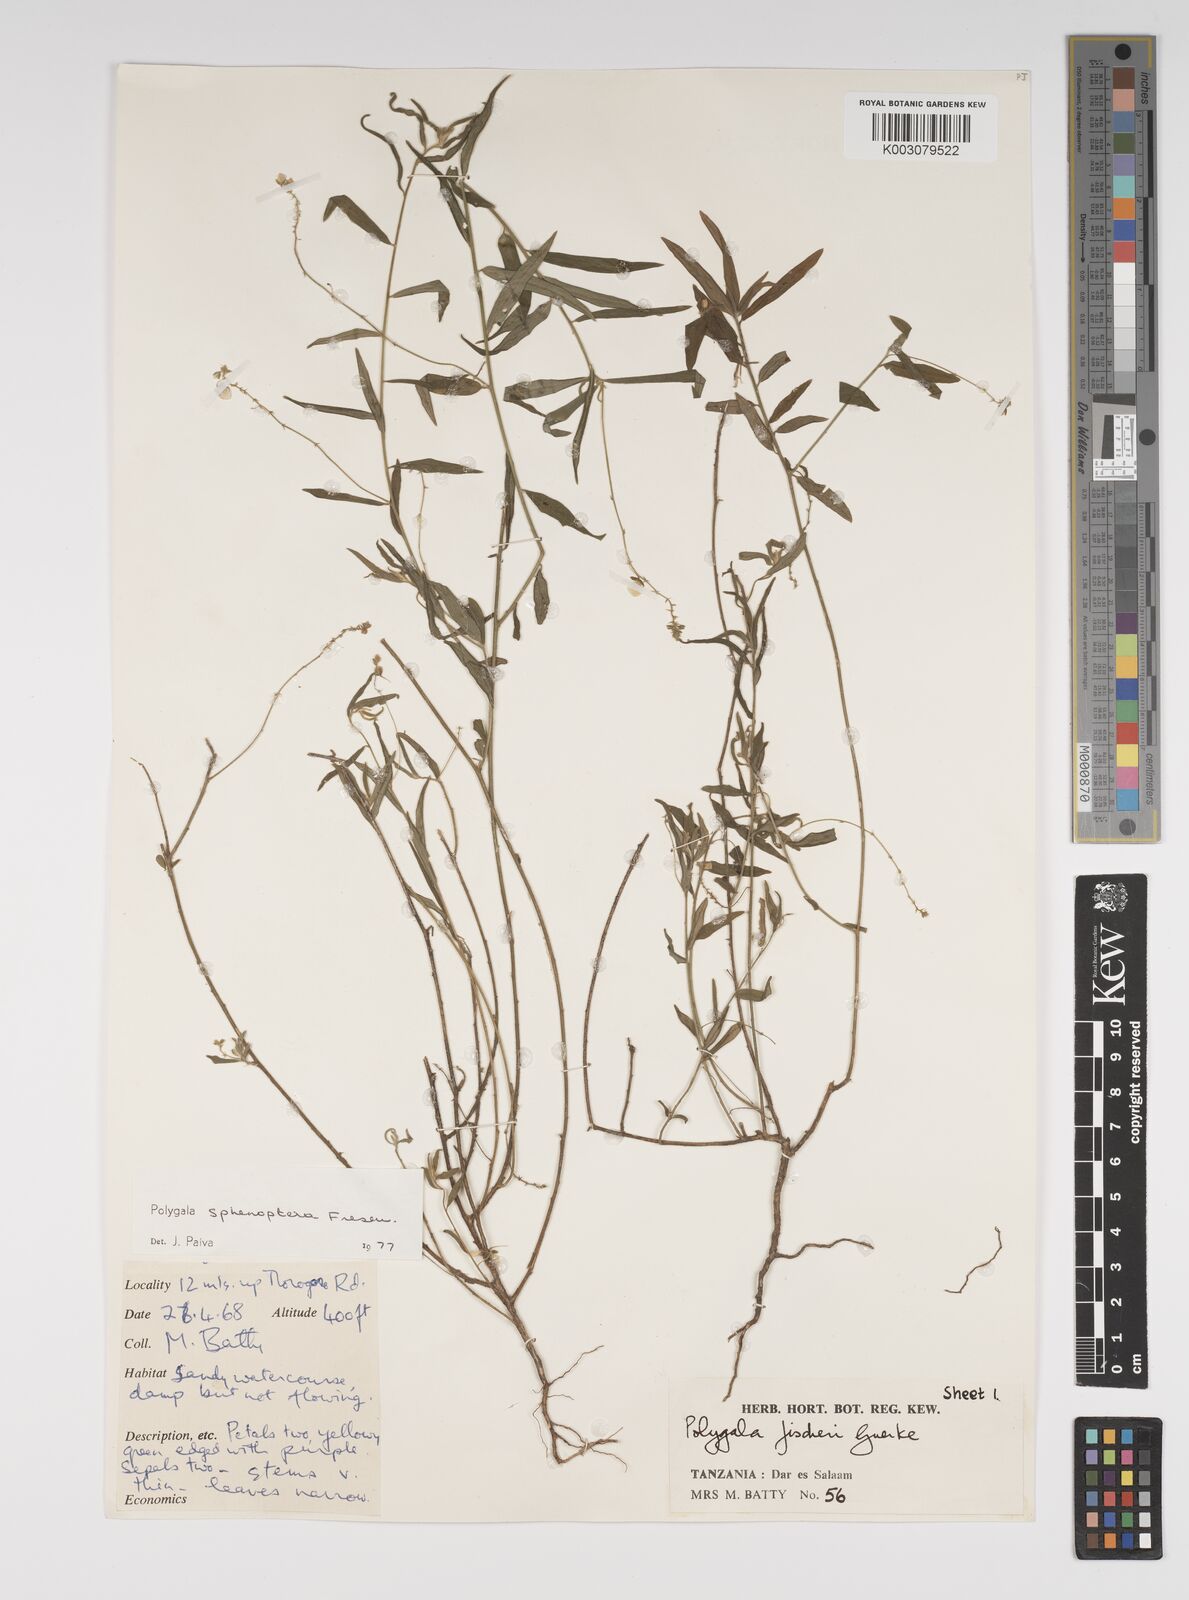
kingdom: Plantae
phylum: Tracheophyta
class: Magnoliopsida
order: Fabales
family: Polygalaceae
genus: Polygala
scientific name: Polygala sphenoptera
